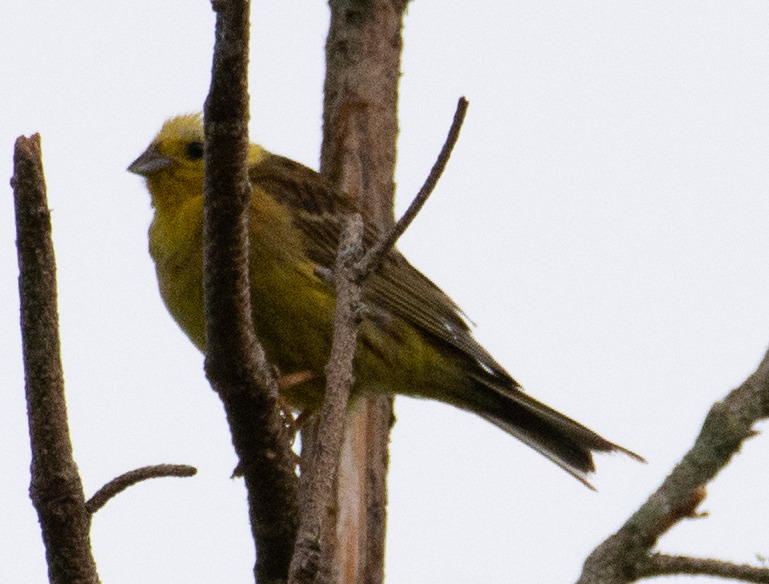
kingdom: Animalia
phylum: Chordata
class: Aves
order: Passeriformes
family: Emberizidae
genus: Emberiza
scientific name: Emberiza citrinella
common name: Gulspurv
